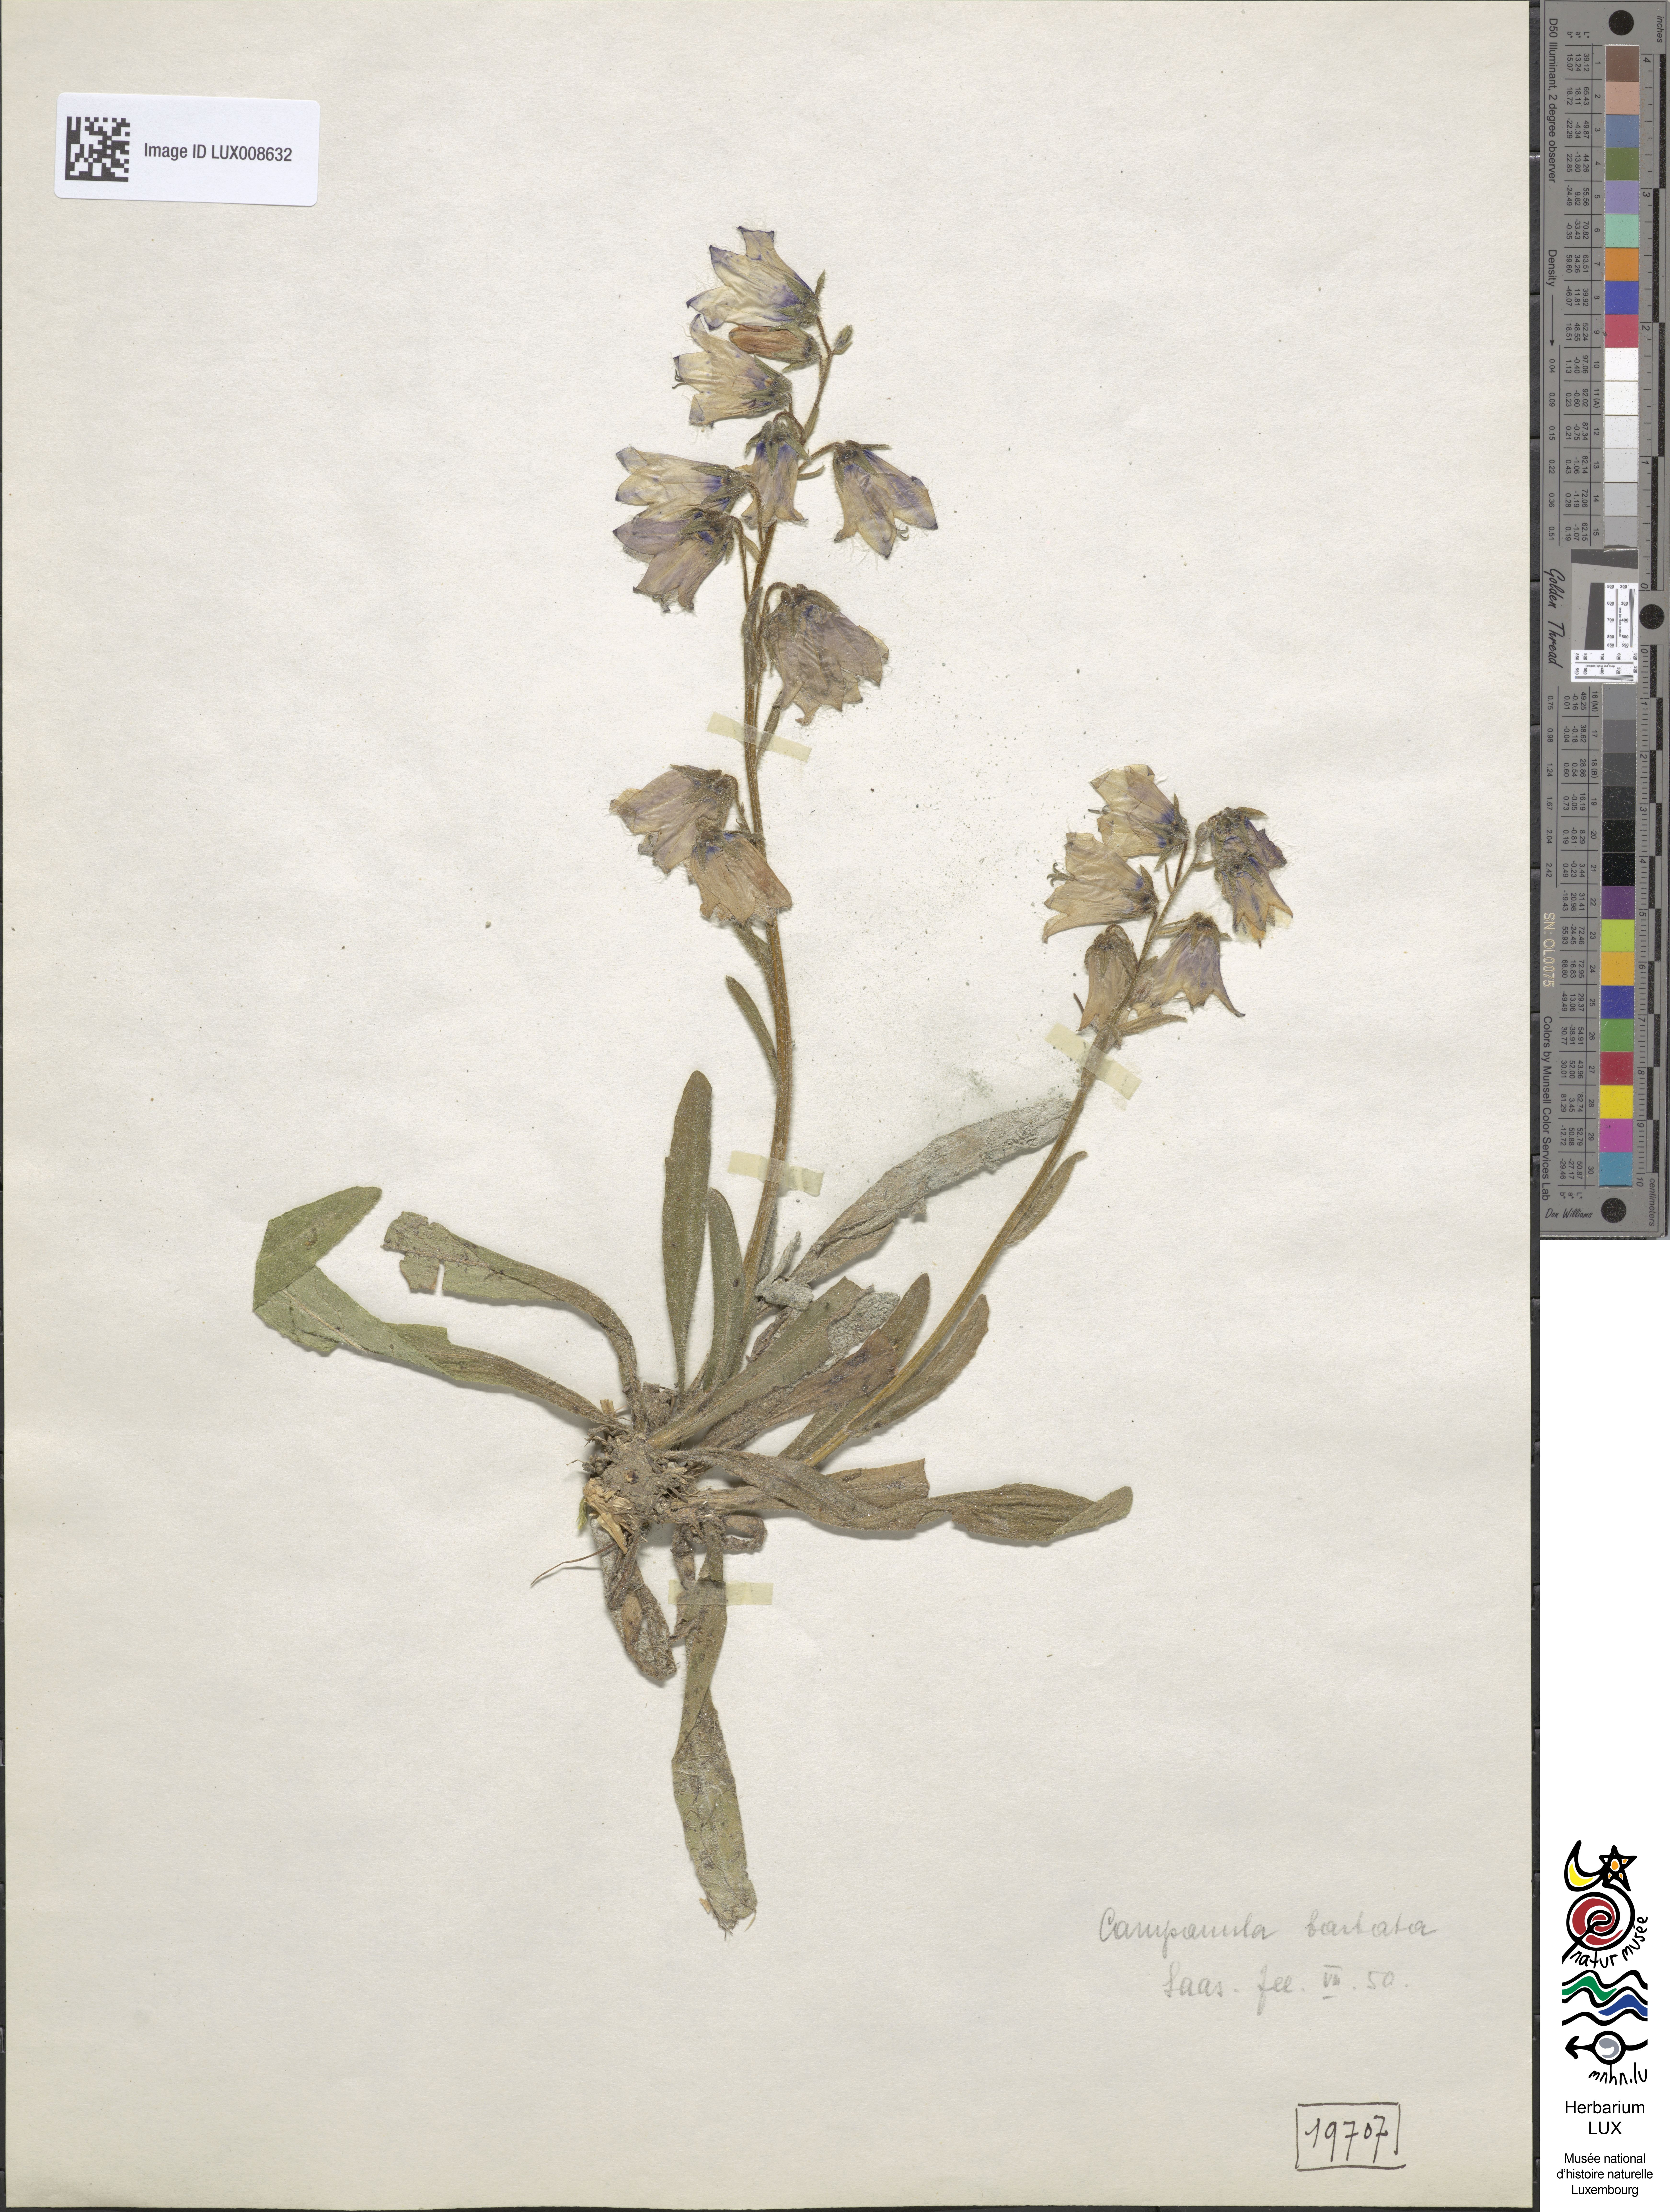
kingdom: Plantae
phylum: Tracheophyta
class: Magnoliopsida
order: Asterales
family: Campanulaceae
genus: Campanula
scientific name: Campanula barbata
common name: Bearded bellflower
